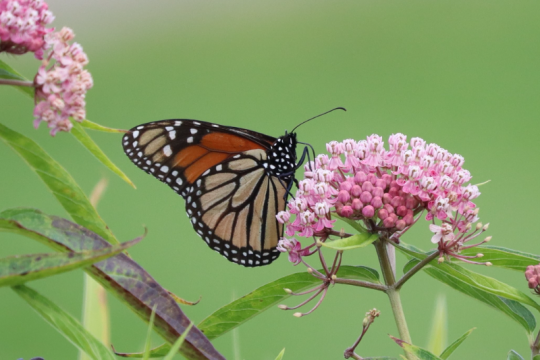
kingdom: Animalia
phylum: Arthropoda
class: Insecta
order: Lepidoptera
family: Nymphalidae
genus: Danaus
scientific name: Danaus plexippus
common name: Monarch
